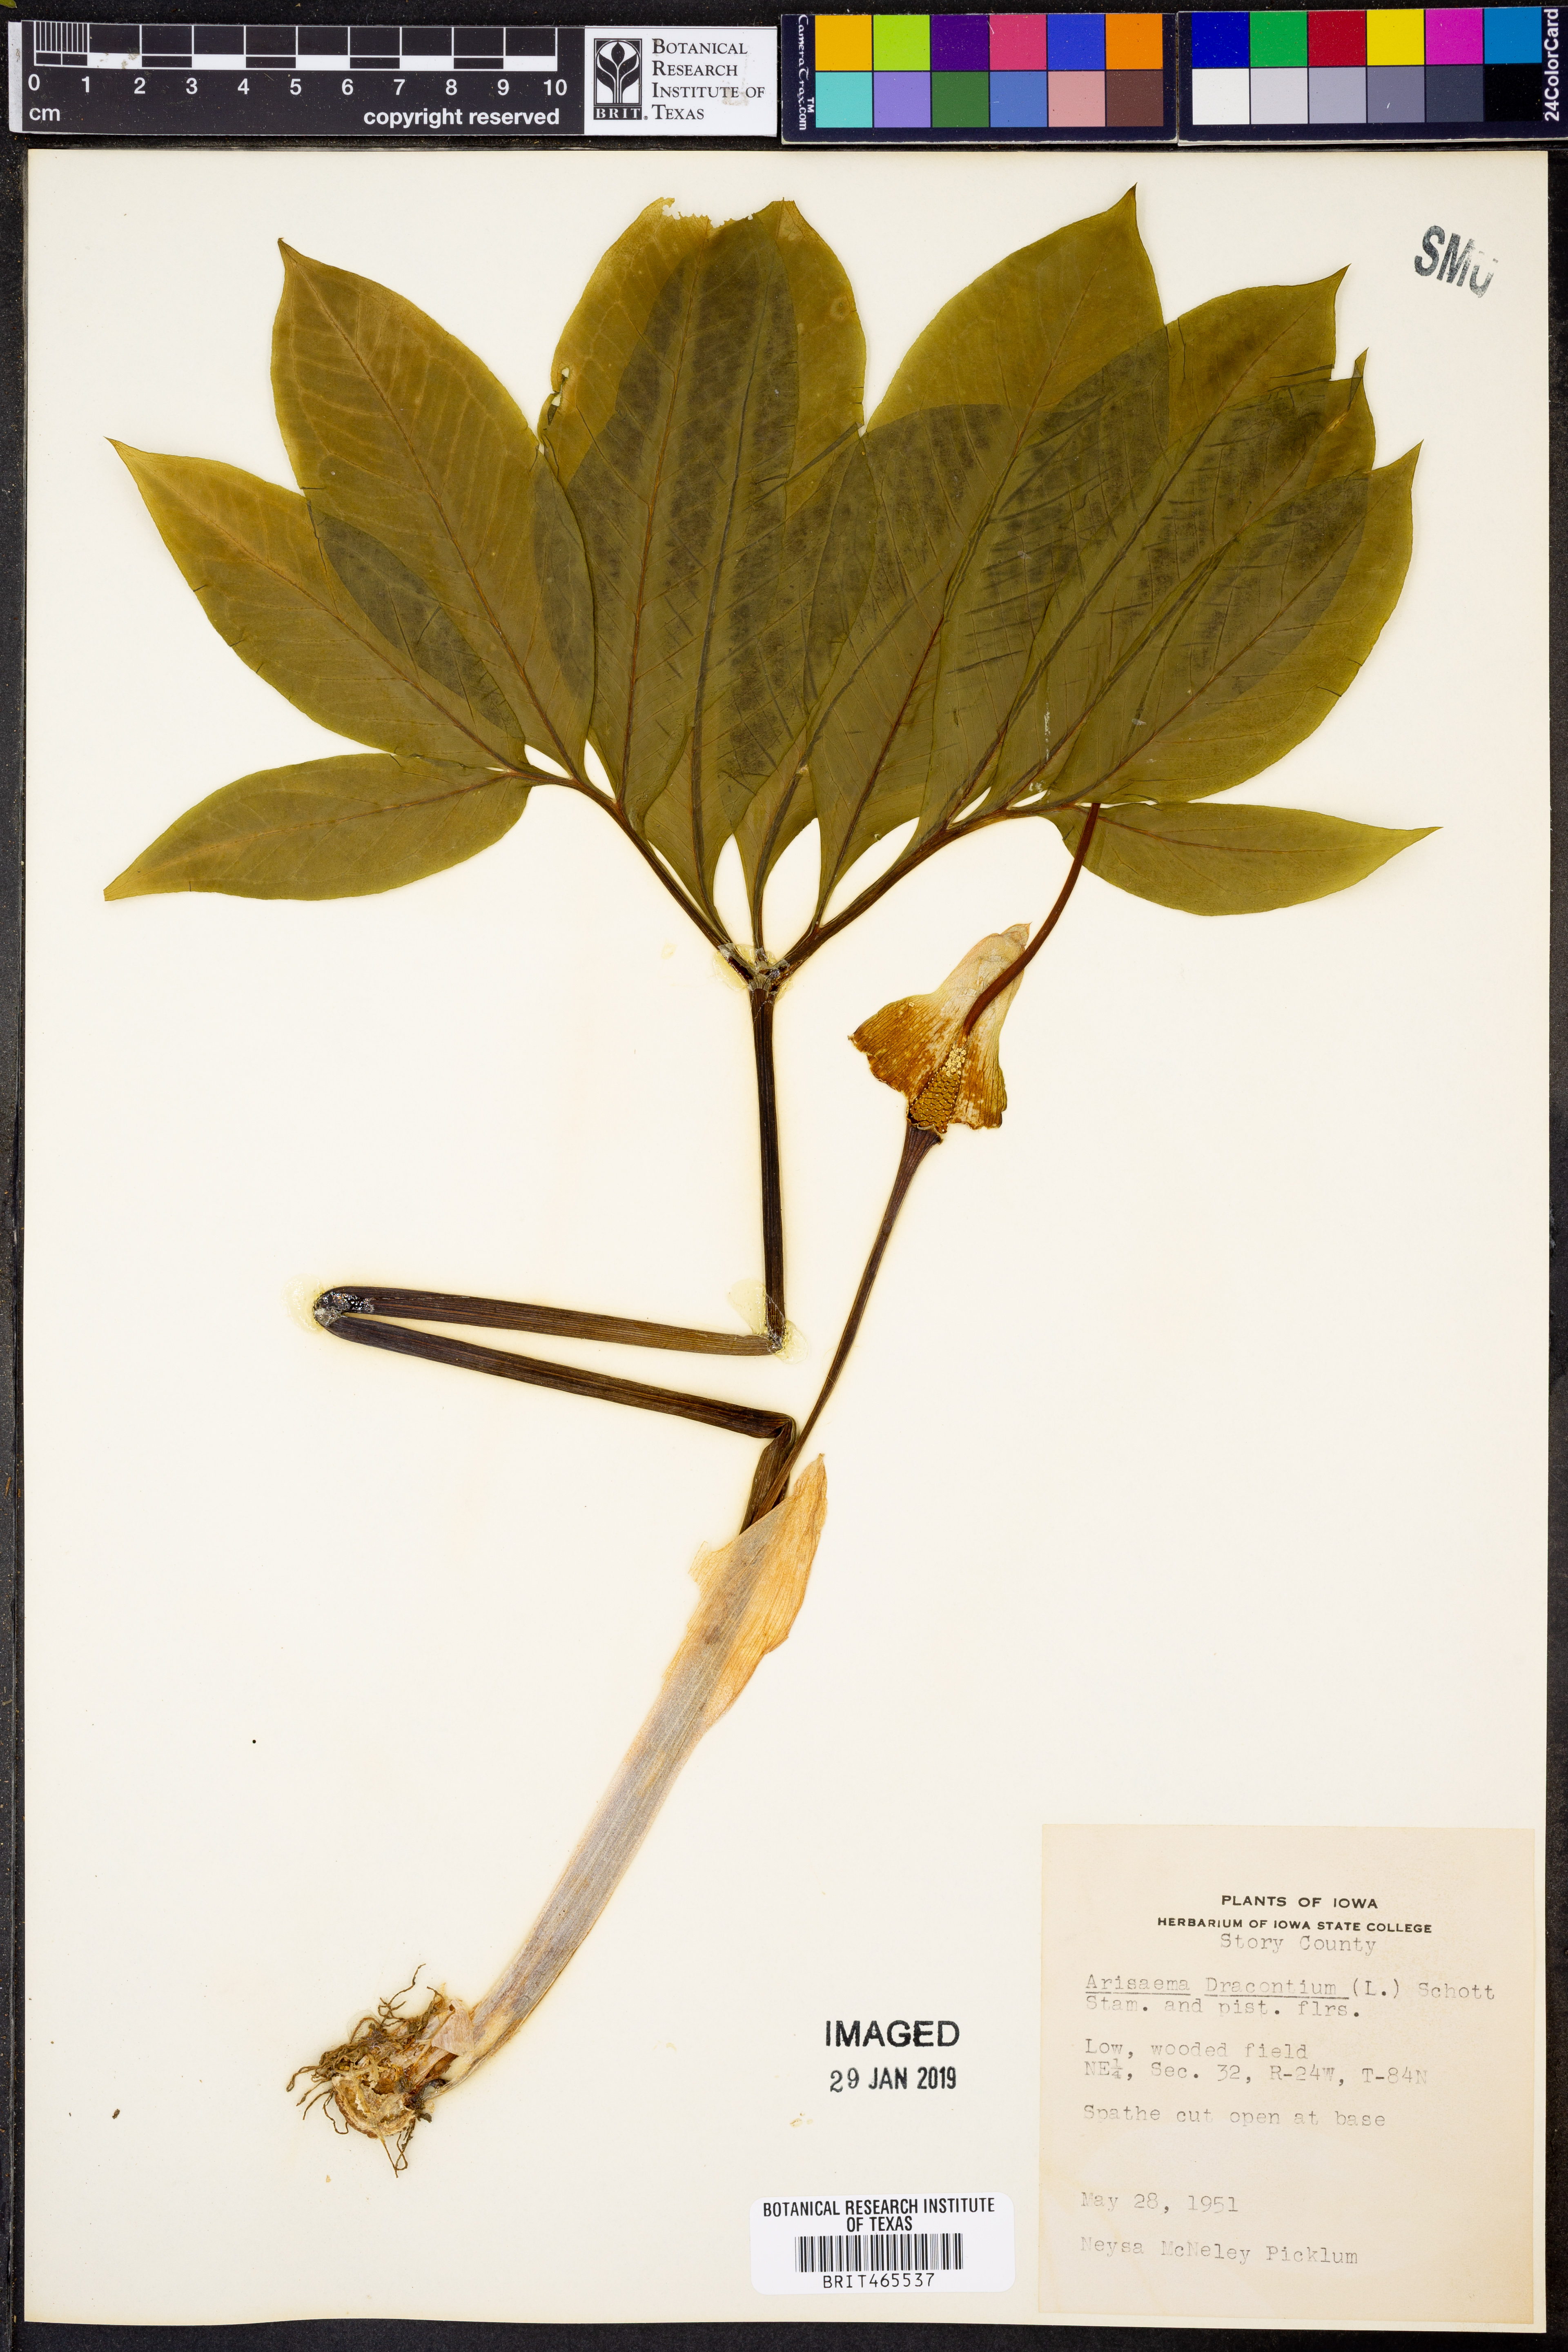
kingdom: Plantae
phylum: Tracheophyta
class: Liliopsida
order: Alismatales
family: Araceae
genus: Arisaema
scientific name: Arisaema dracontium
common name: Dragon-arum
